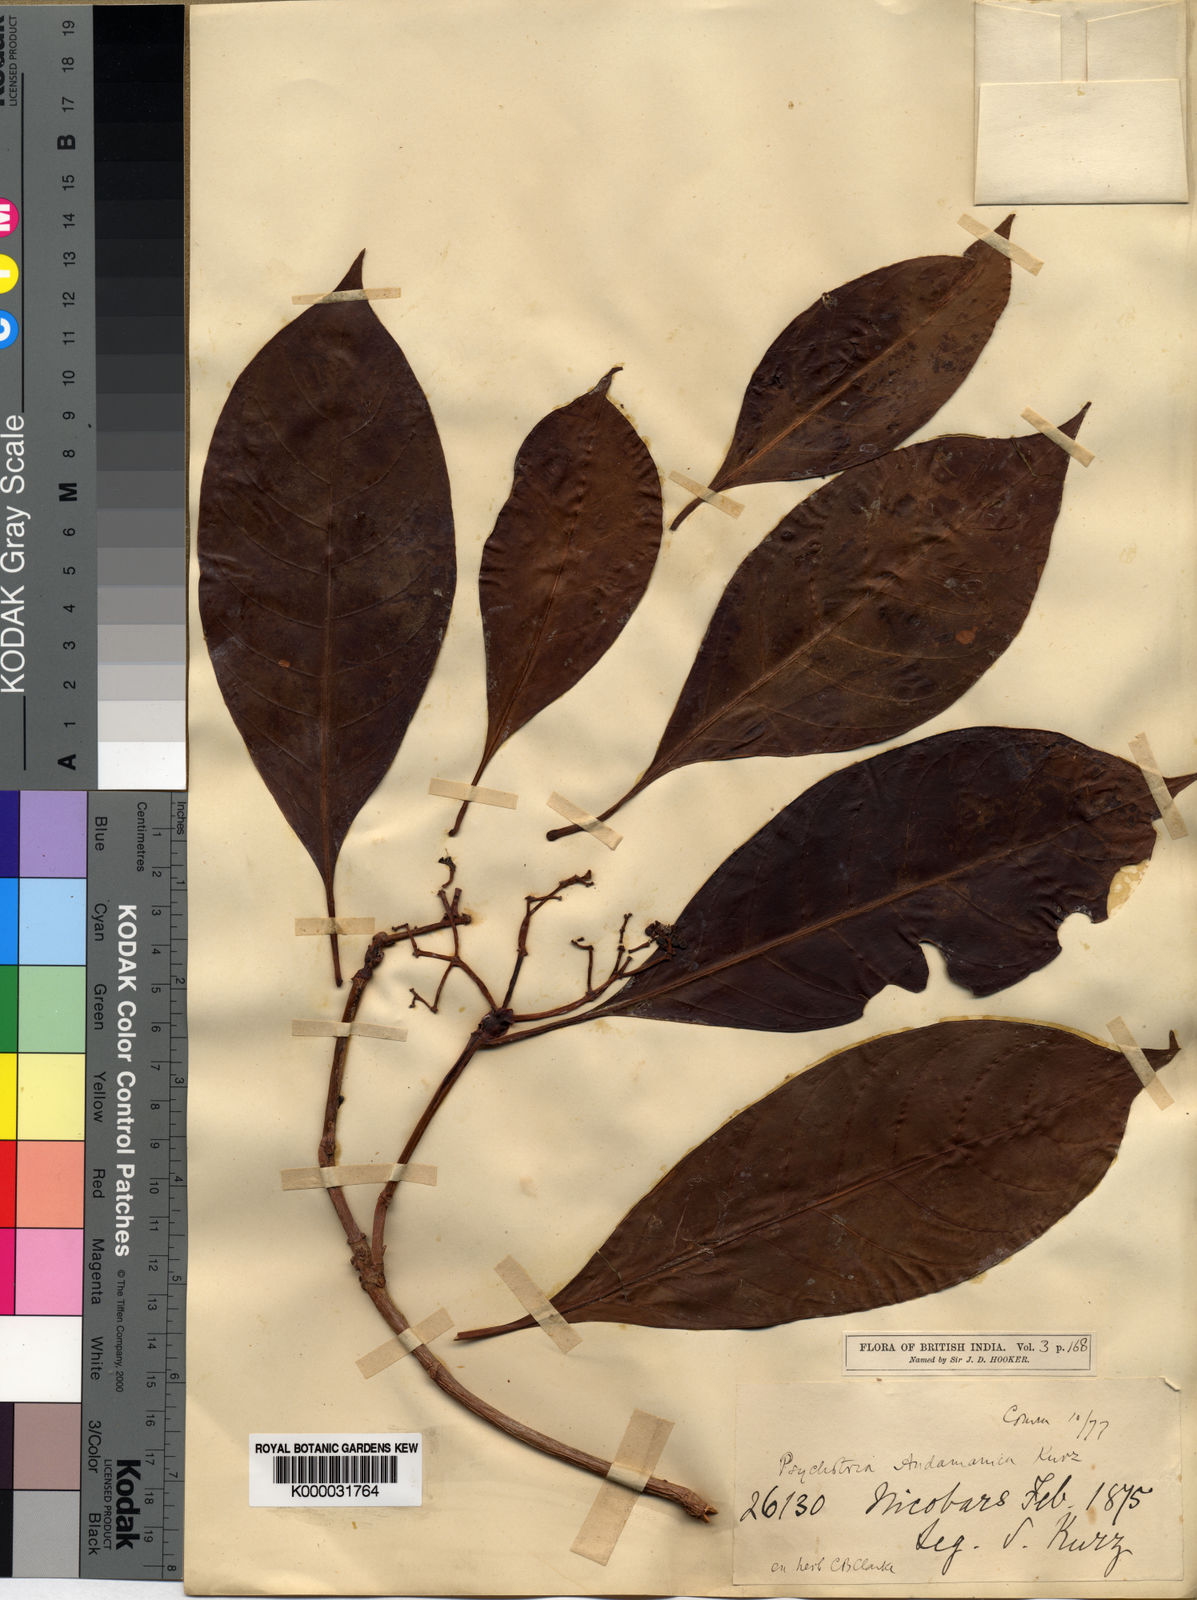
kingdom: Plantae
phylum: Tracheophyta
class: Magnoliopsida
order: Gentianales
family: Rubiaceae
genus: Psychotria
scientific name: Psychotria andamanica
